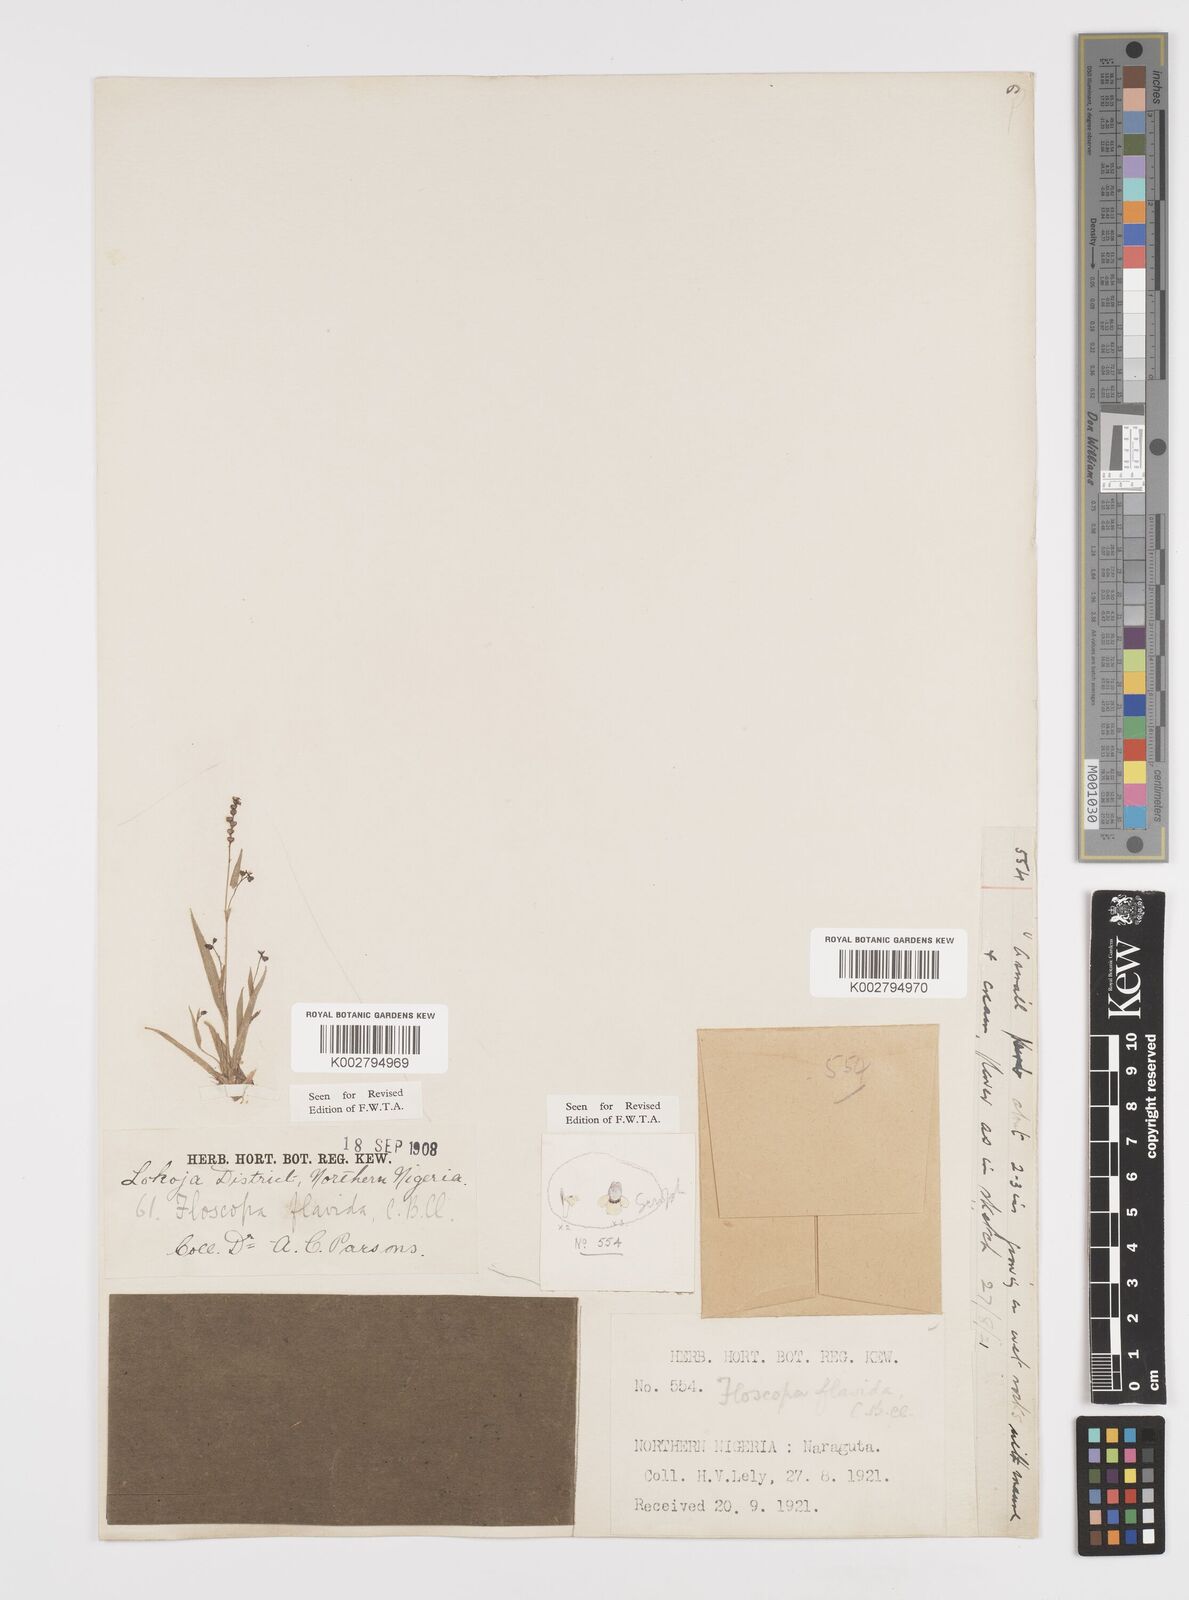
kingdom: Plantae
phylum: Tracheophyta
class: Liliopsida
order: Commelinales
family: Commelinaceae
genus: Floscopa
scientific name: Floscopa flavida
